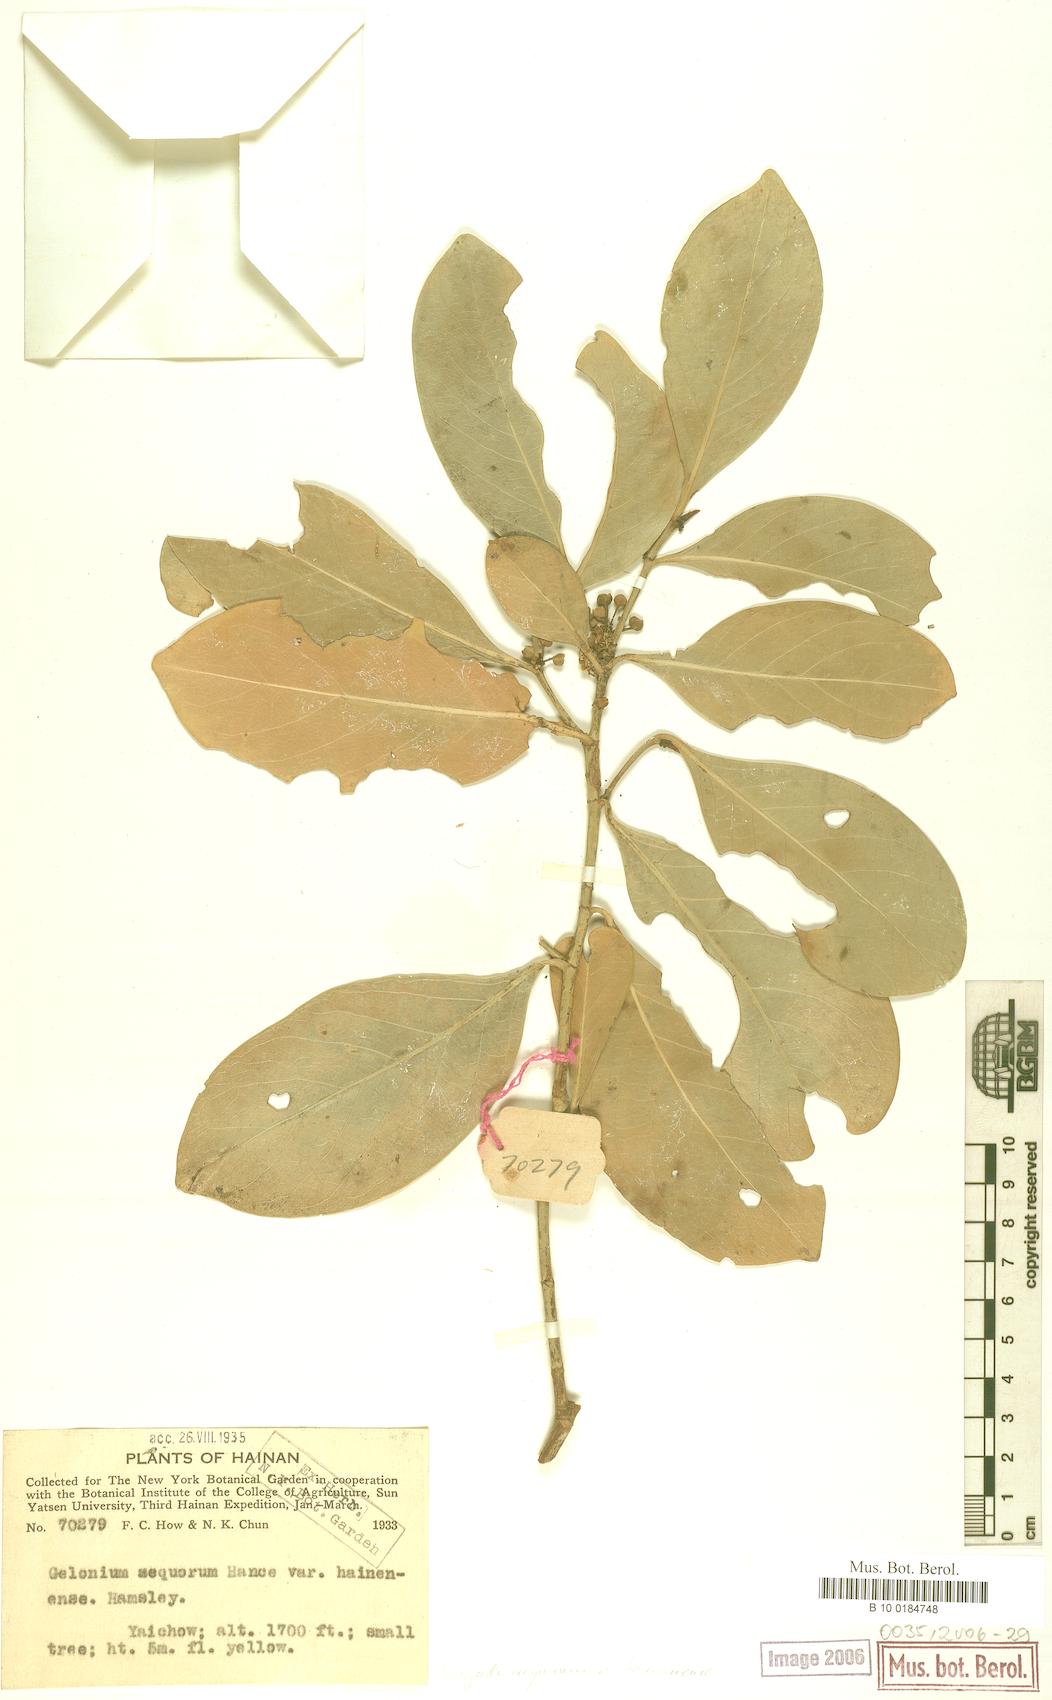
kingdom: Plantae
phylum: Tracheophyta
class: Magnoliopsida
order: Malpighiales
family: Euphorbiaceae
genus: Suregada
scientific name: Suregada multiflora
